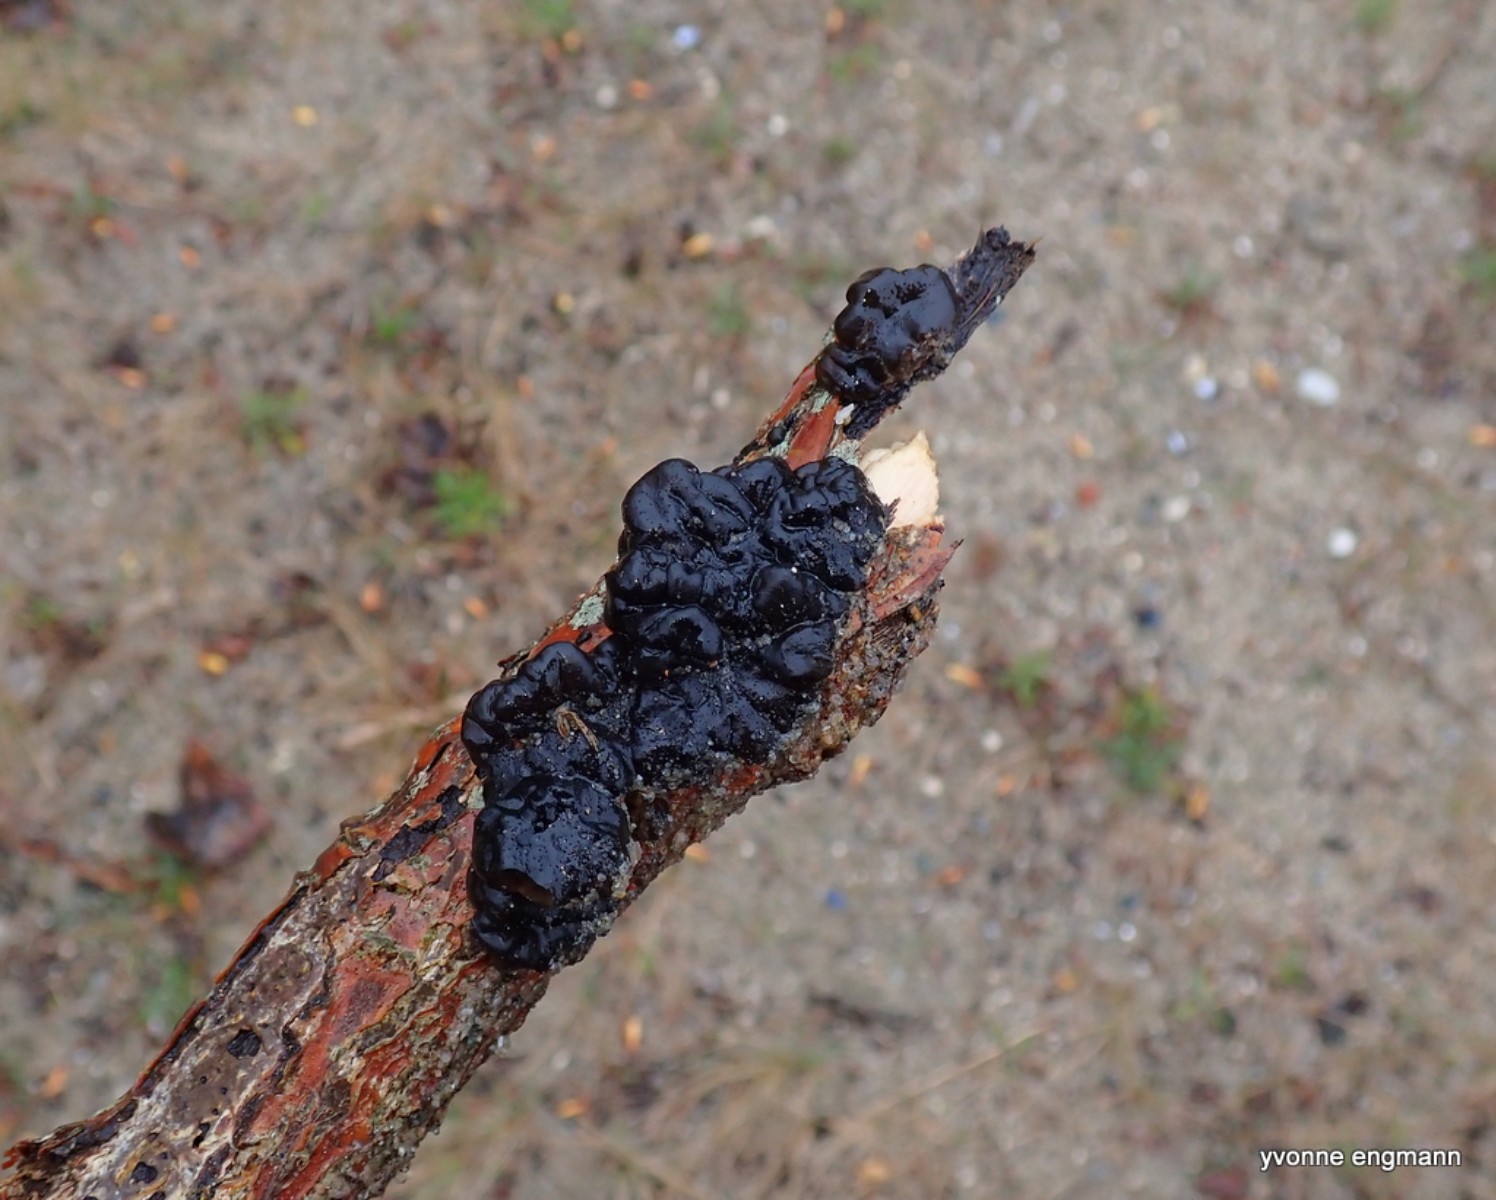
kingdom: Fungi
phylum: Basidiomycota
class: Agaricomycetes
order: Auriculariales
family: Auriculariaceae
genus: Exidia
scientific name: Exidia nigricans
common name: almindelig bævretop
